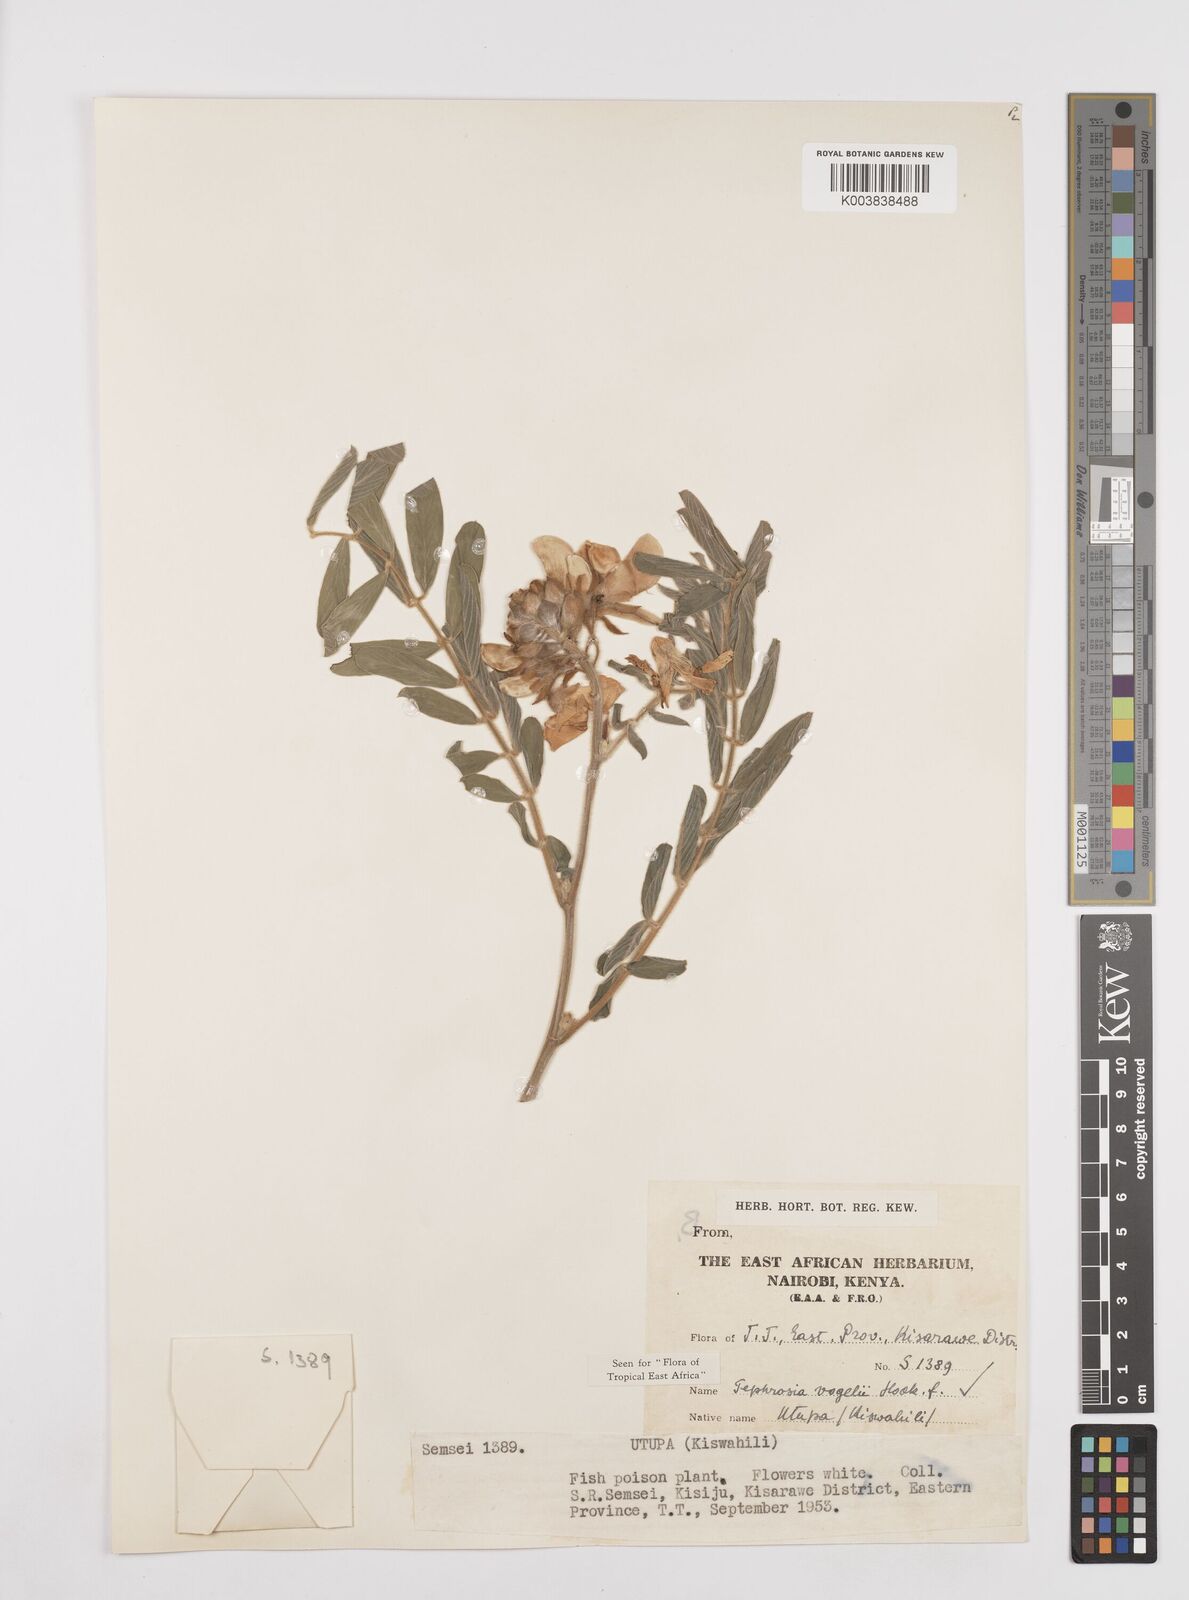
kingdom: Plantae
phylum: Tracheophyta
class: Magnoliopsida
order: Fabales
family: Fabaceae
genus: Tephrosia
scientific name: Tephrosia vogelii
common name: Vogel tephrosia
